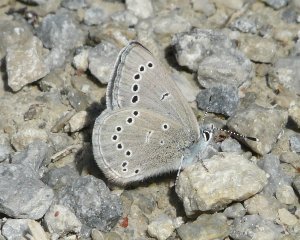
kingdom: Animalia
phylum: Arthropoda
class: Insecta
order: Lepidoptera
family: Lycaenidae
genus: Glaucopsyche
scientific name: Glaucopsyche lygdamus
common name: Silvery Blue
